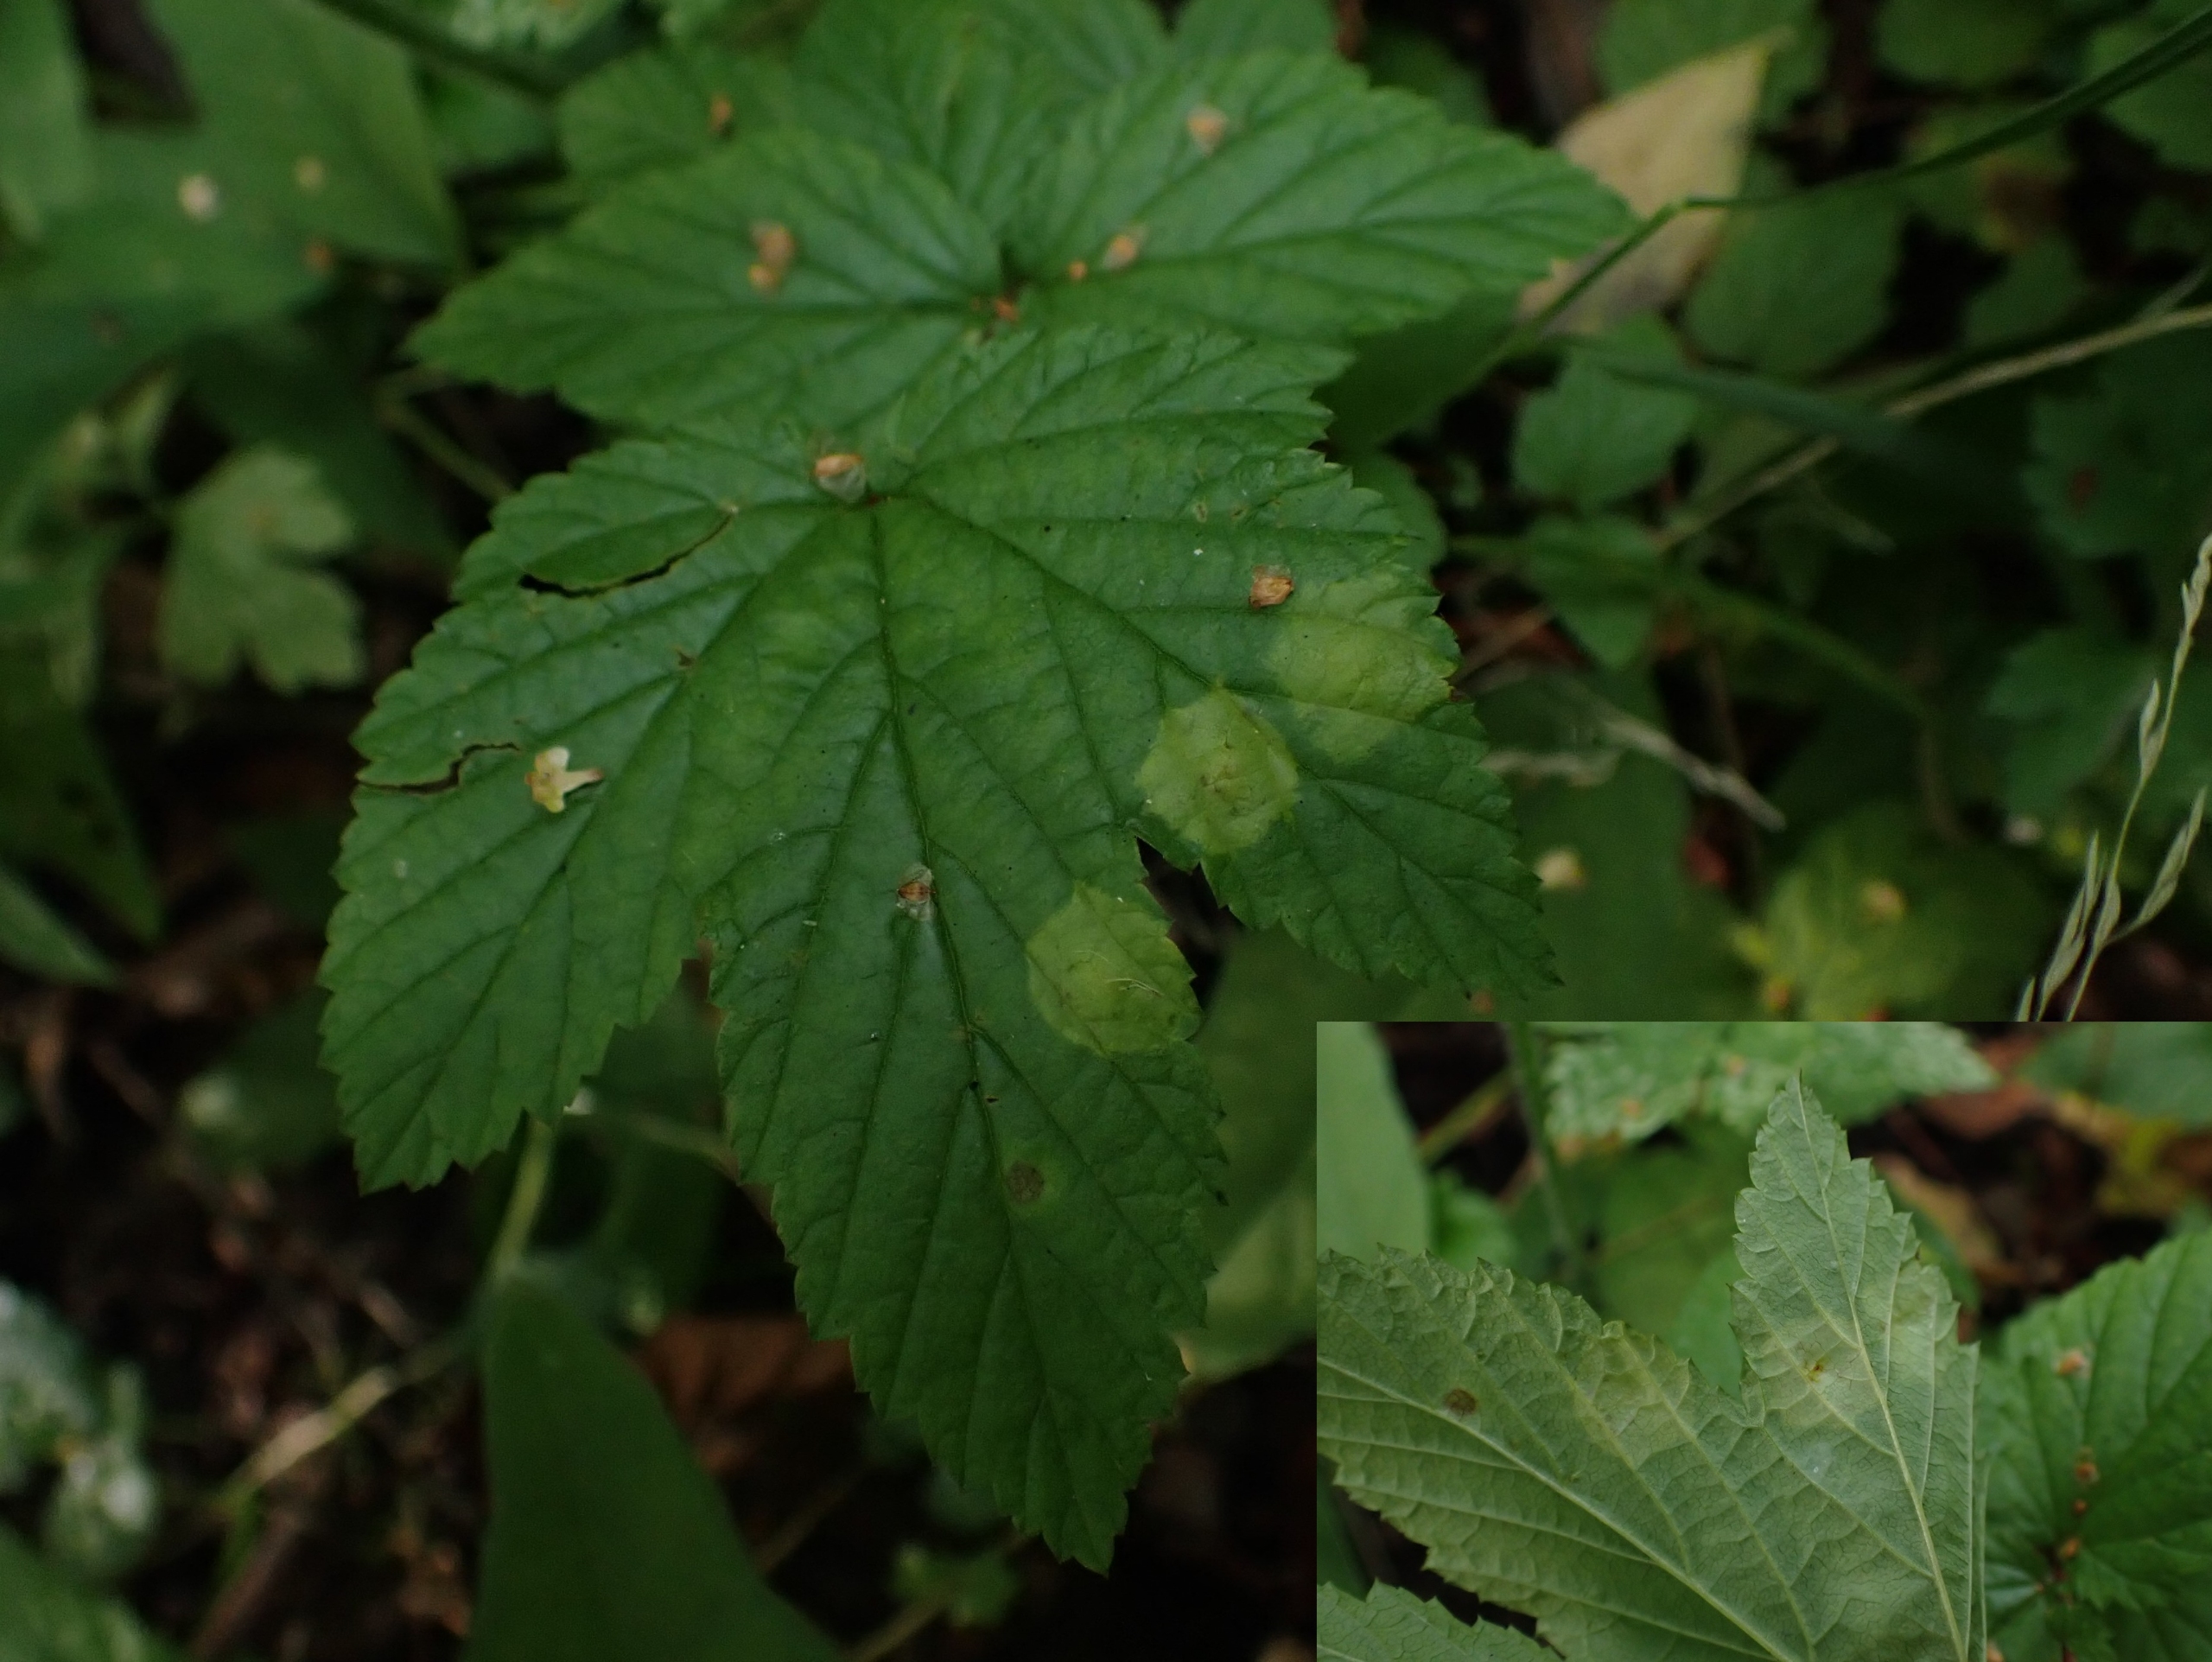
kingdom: Animalia
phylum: Arthropoda
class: Insecta
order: Diptera
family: Cecidomyiidae
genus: Dasineura
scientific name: Dasineura pustulans
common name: Mjødurtblistgalmyg
